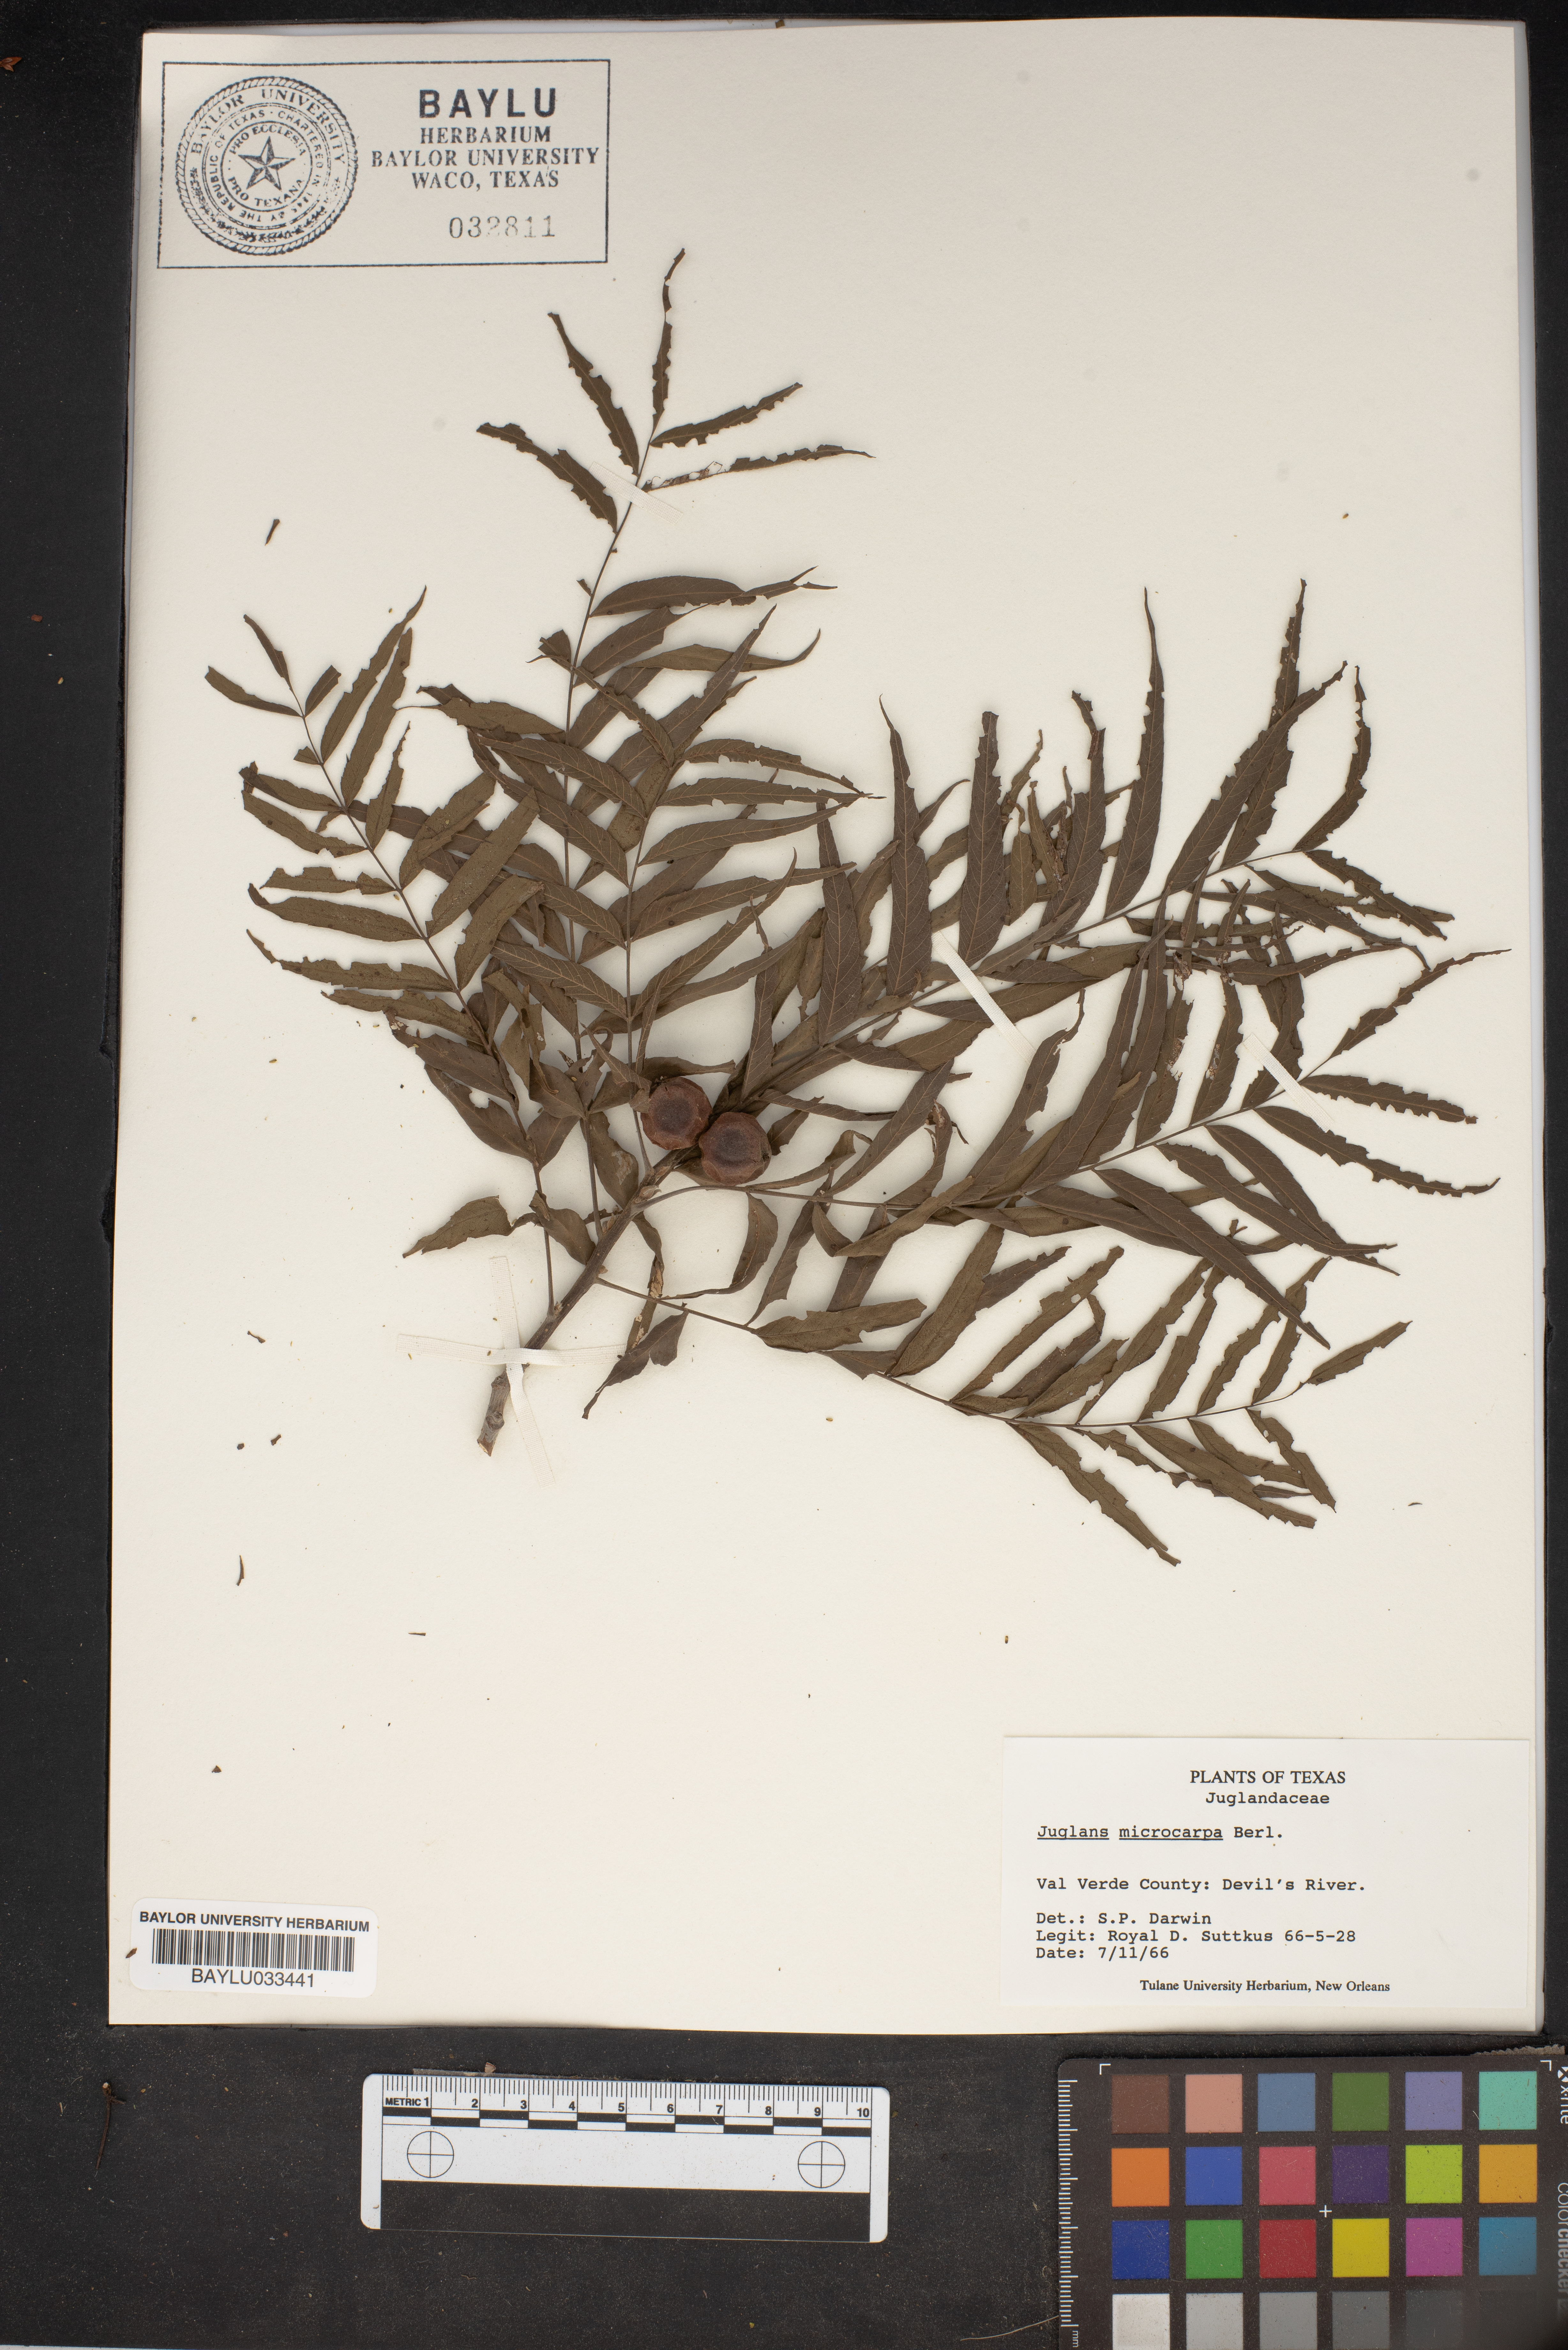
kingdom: Plantae
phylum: Tracheophyta
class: Magnoliopsida
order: Fagales
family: Juglandaceae
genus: Juglans
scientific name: Juglans microcarpa
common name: Texas walnut
